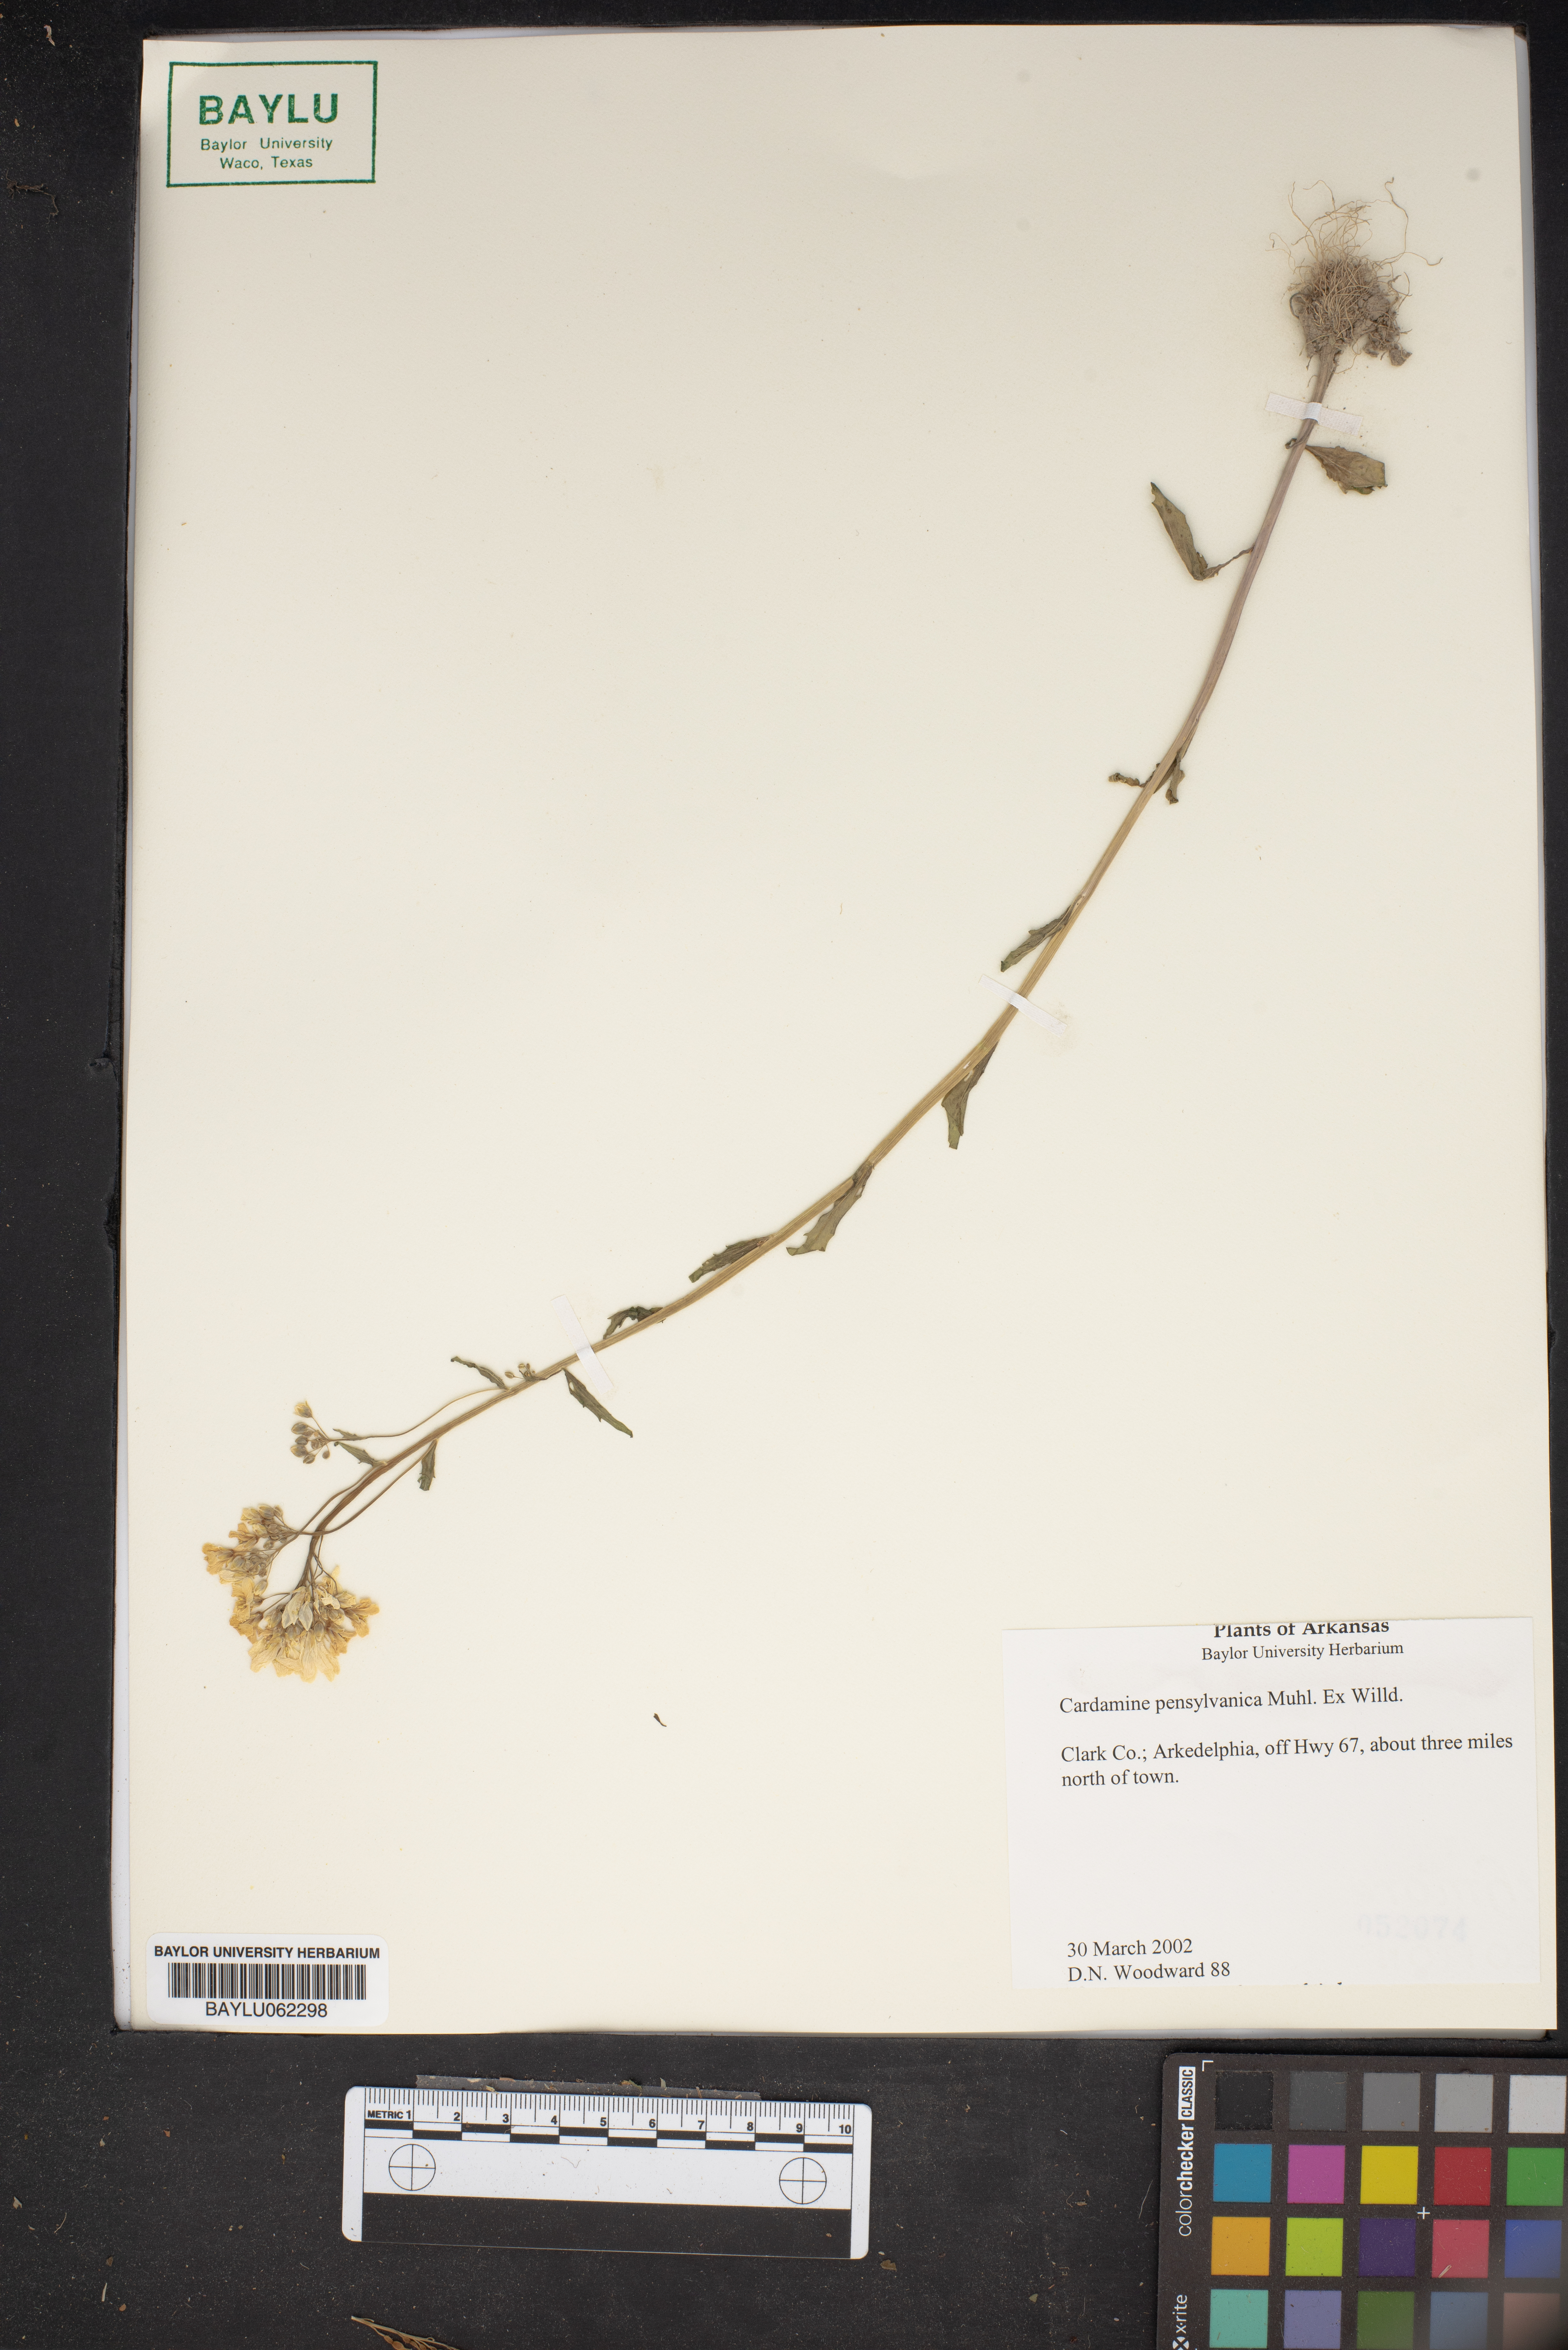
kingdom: Plantae
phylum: Tracheophyta
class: Magnoliopsida
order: Brassicales
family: Brassicaceae
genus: Cardamine
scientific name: Cardamine pensylvanica
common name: Pennsylvania bittercress
